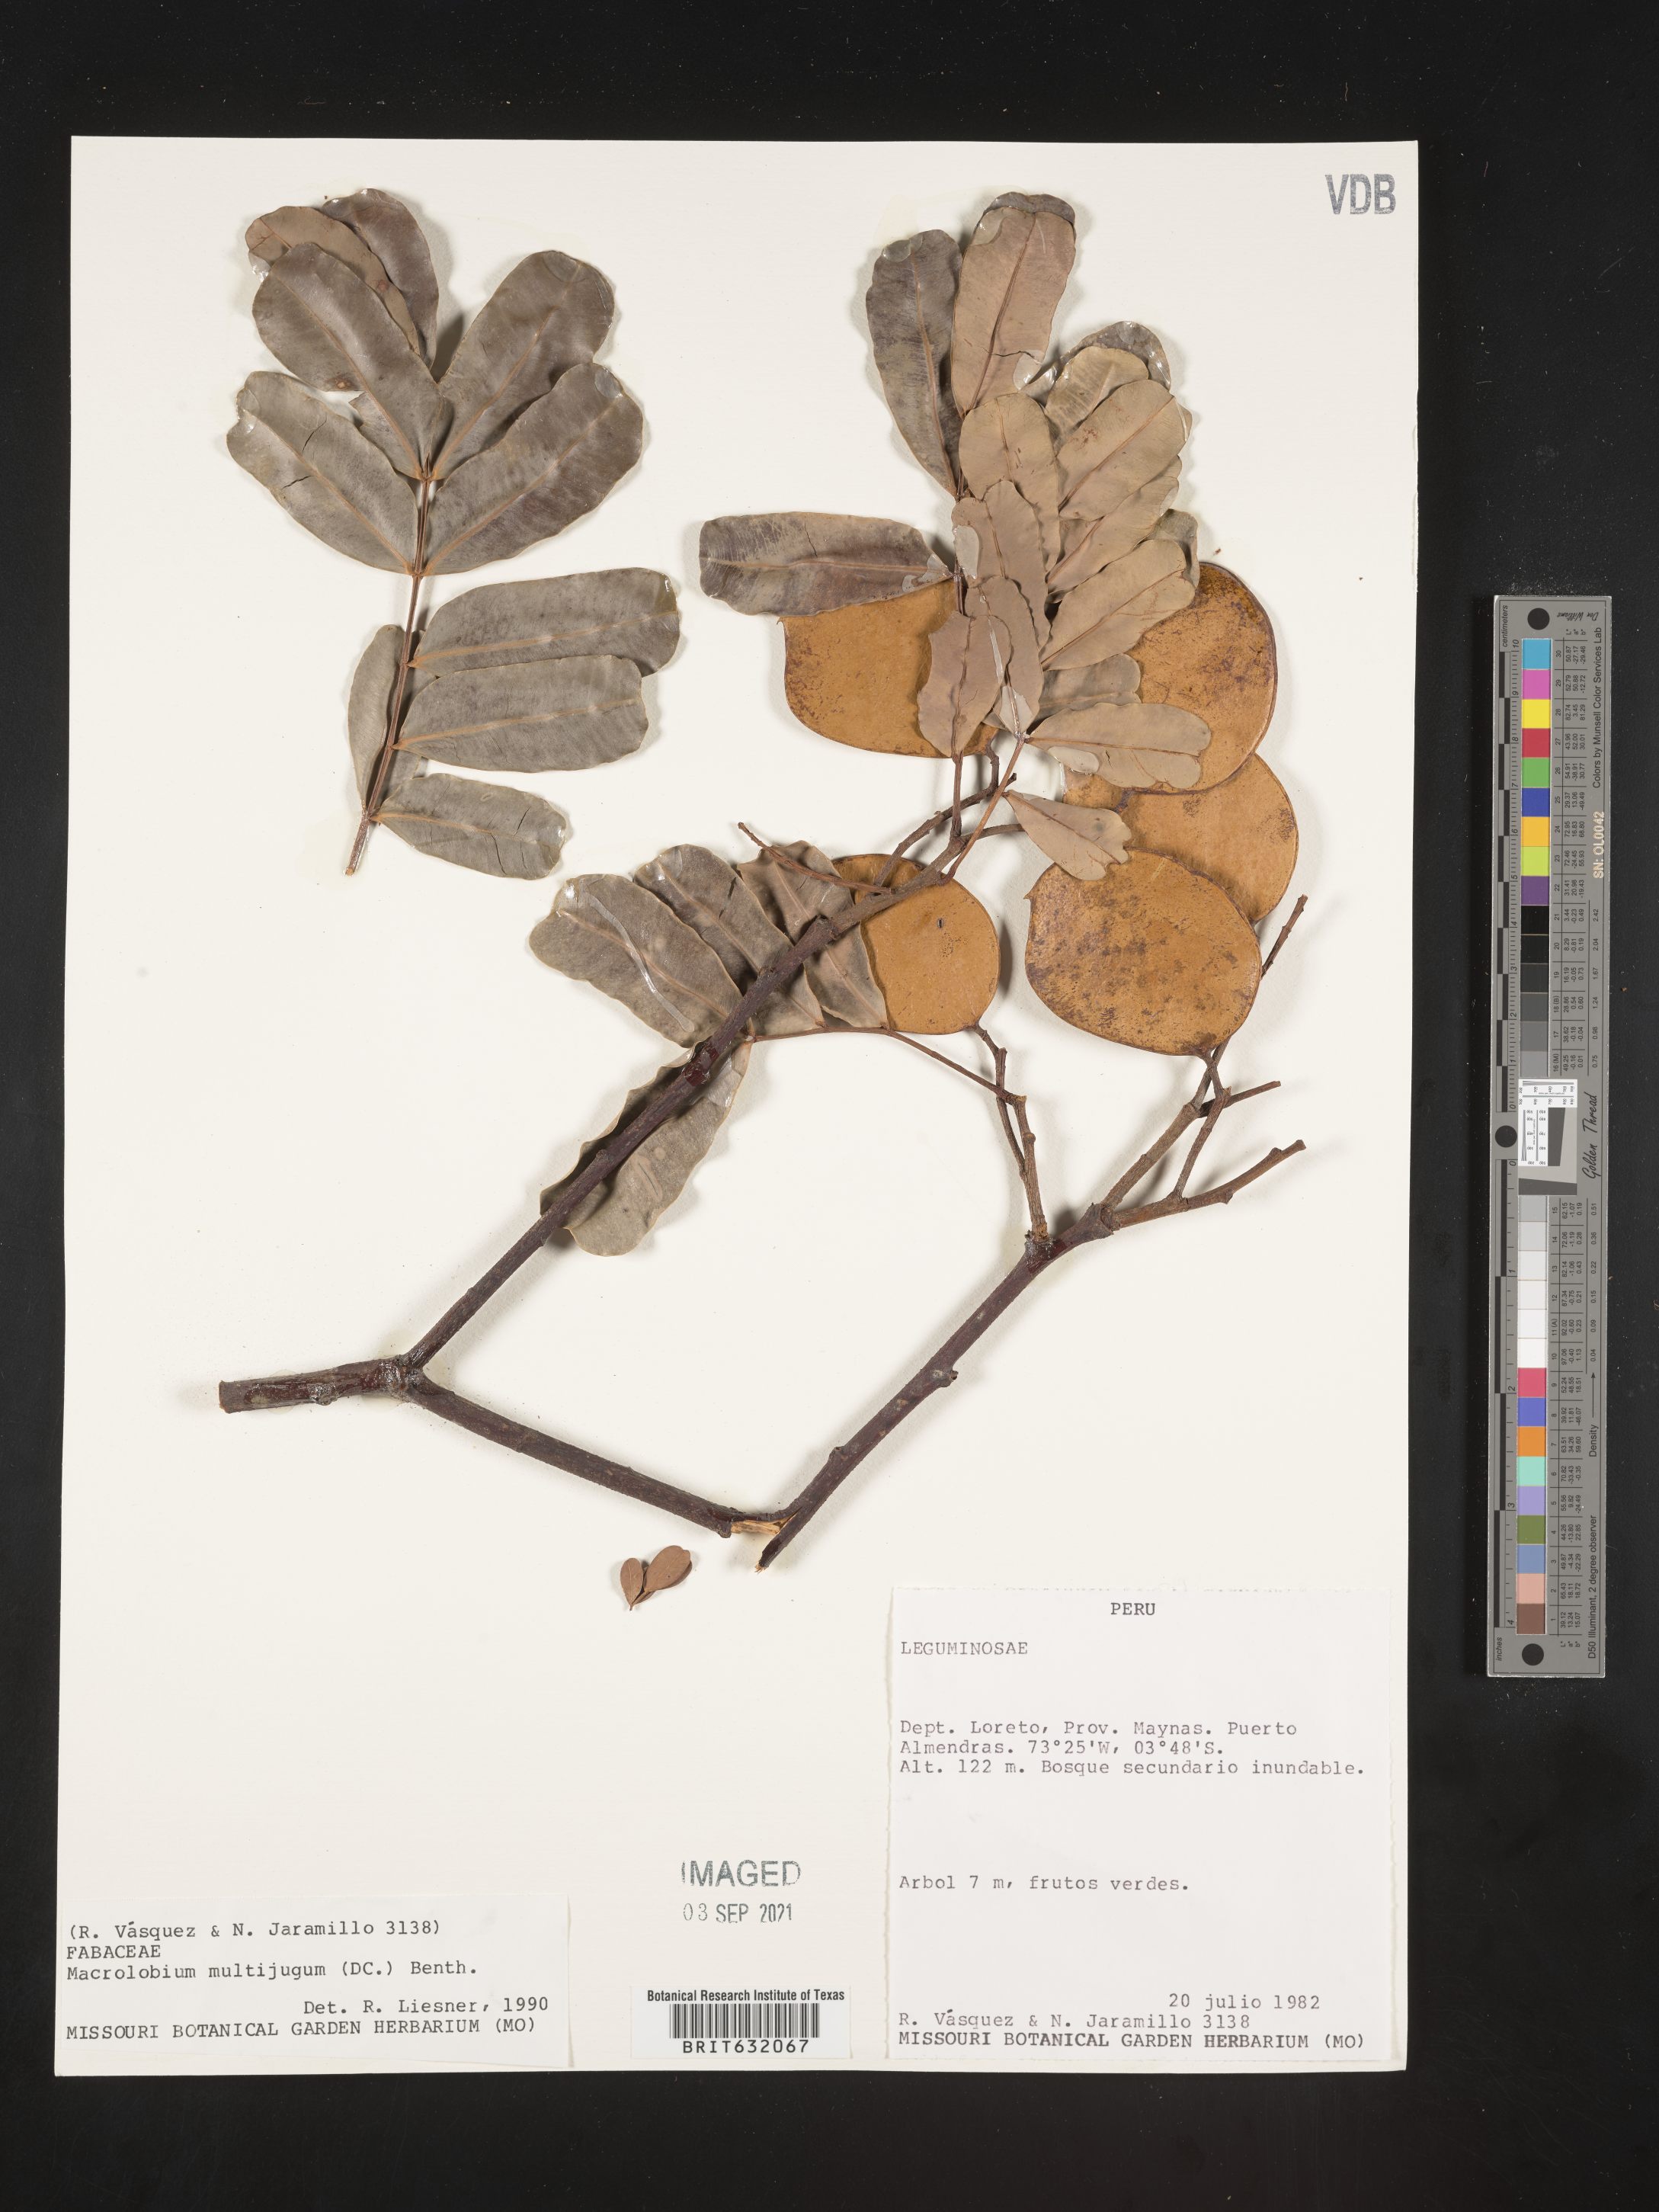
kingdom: Plantae
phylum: Tracheophyta
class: Magnoliopsida
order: Fabales
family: Fabaceae
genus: Macrolobium
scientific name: Macrolobium
